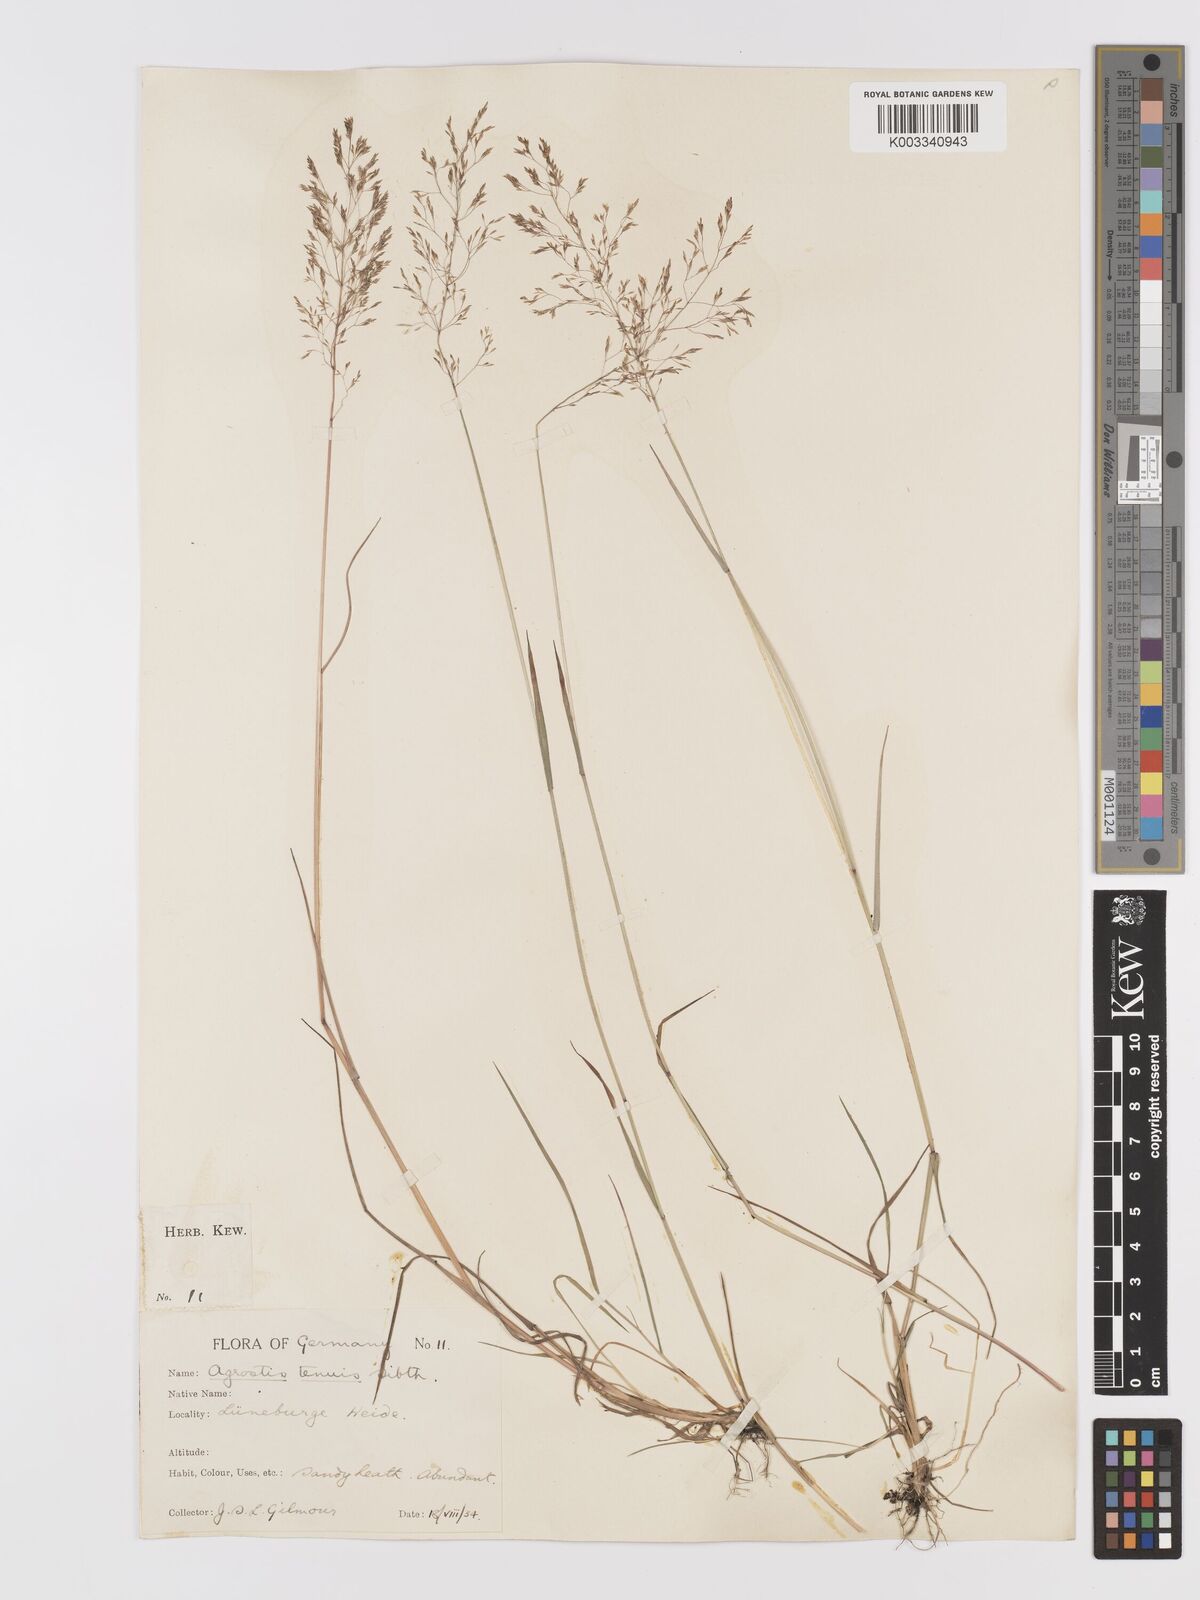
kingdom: Plantae
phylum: Tracheophyta
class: Liliopsida
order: Poales
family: Poaceae
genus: Agrostis
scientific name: Agrostis capillaris
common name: Colonial bentgrass
